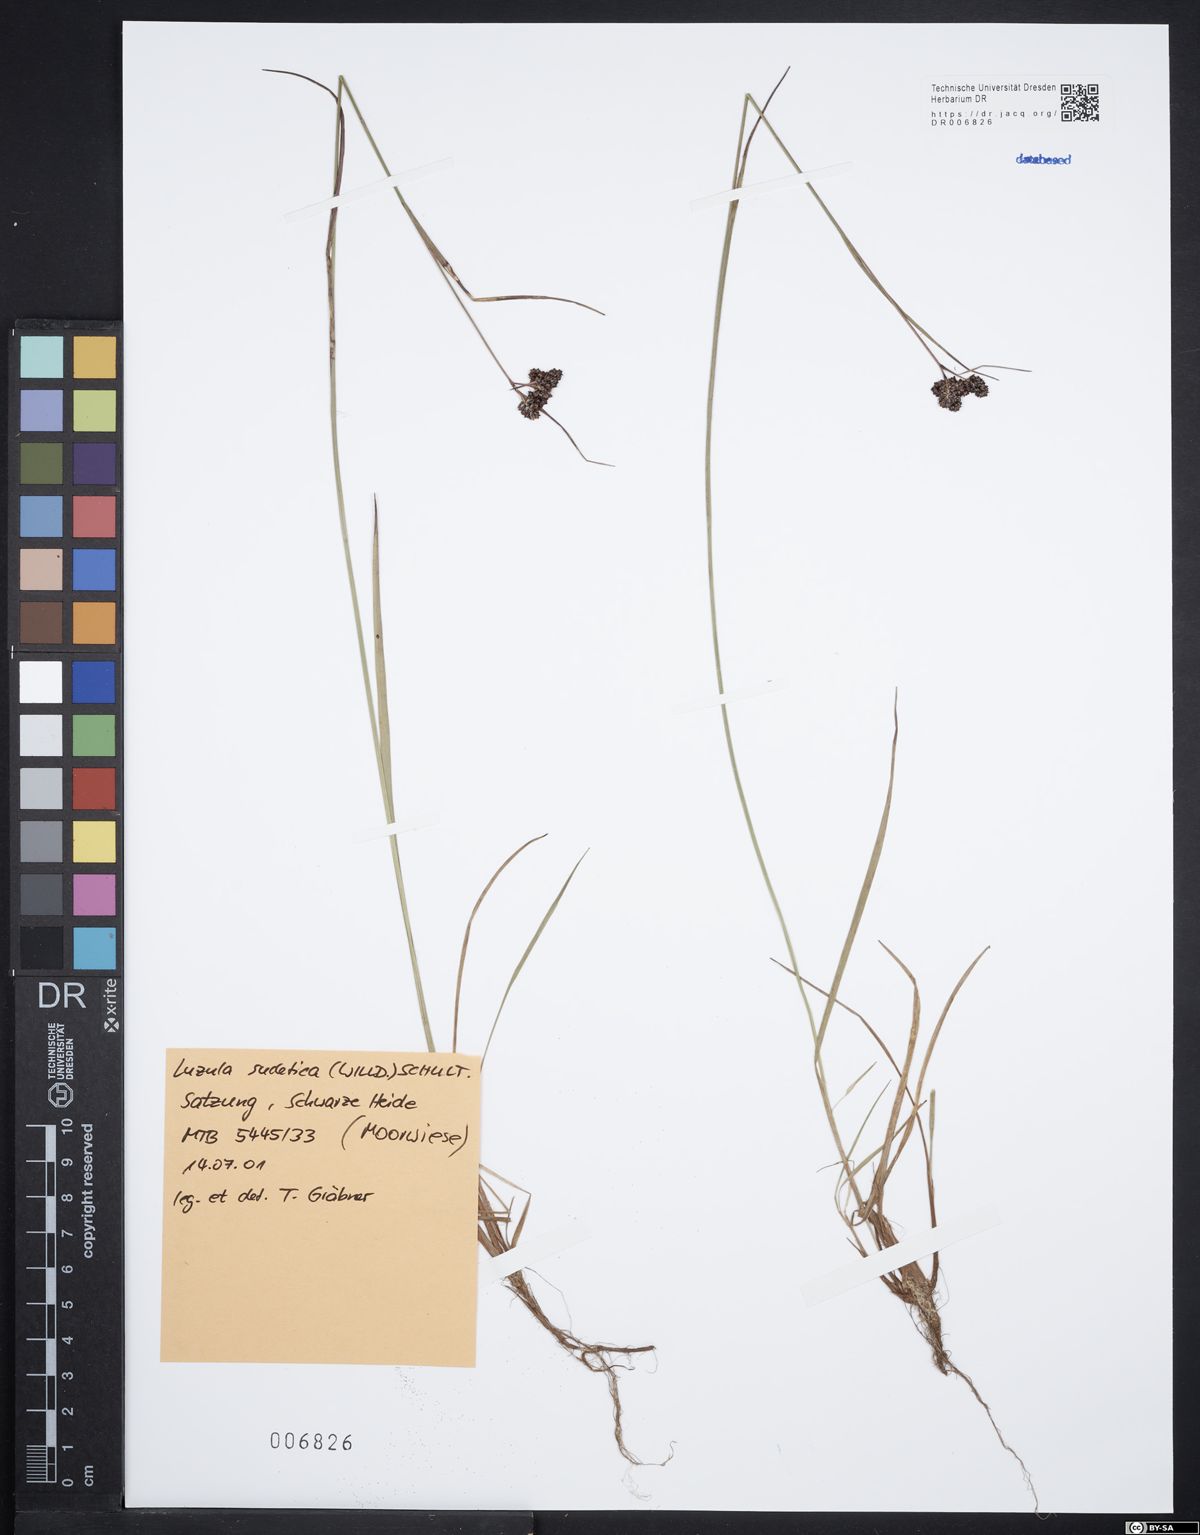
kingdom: Plantae
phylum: Tracheophyta
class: Liliopsida
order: Poales
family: Juncaceae
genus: Luzula
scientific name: Luzula sudetica
